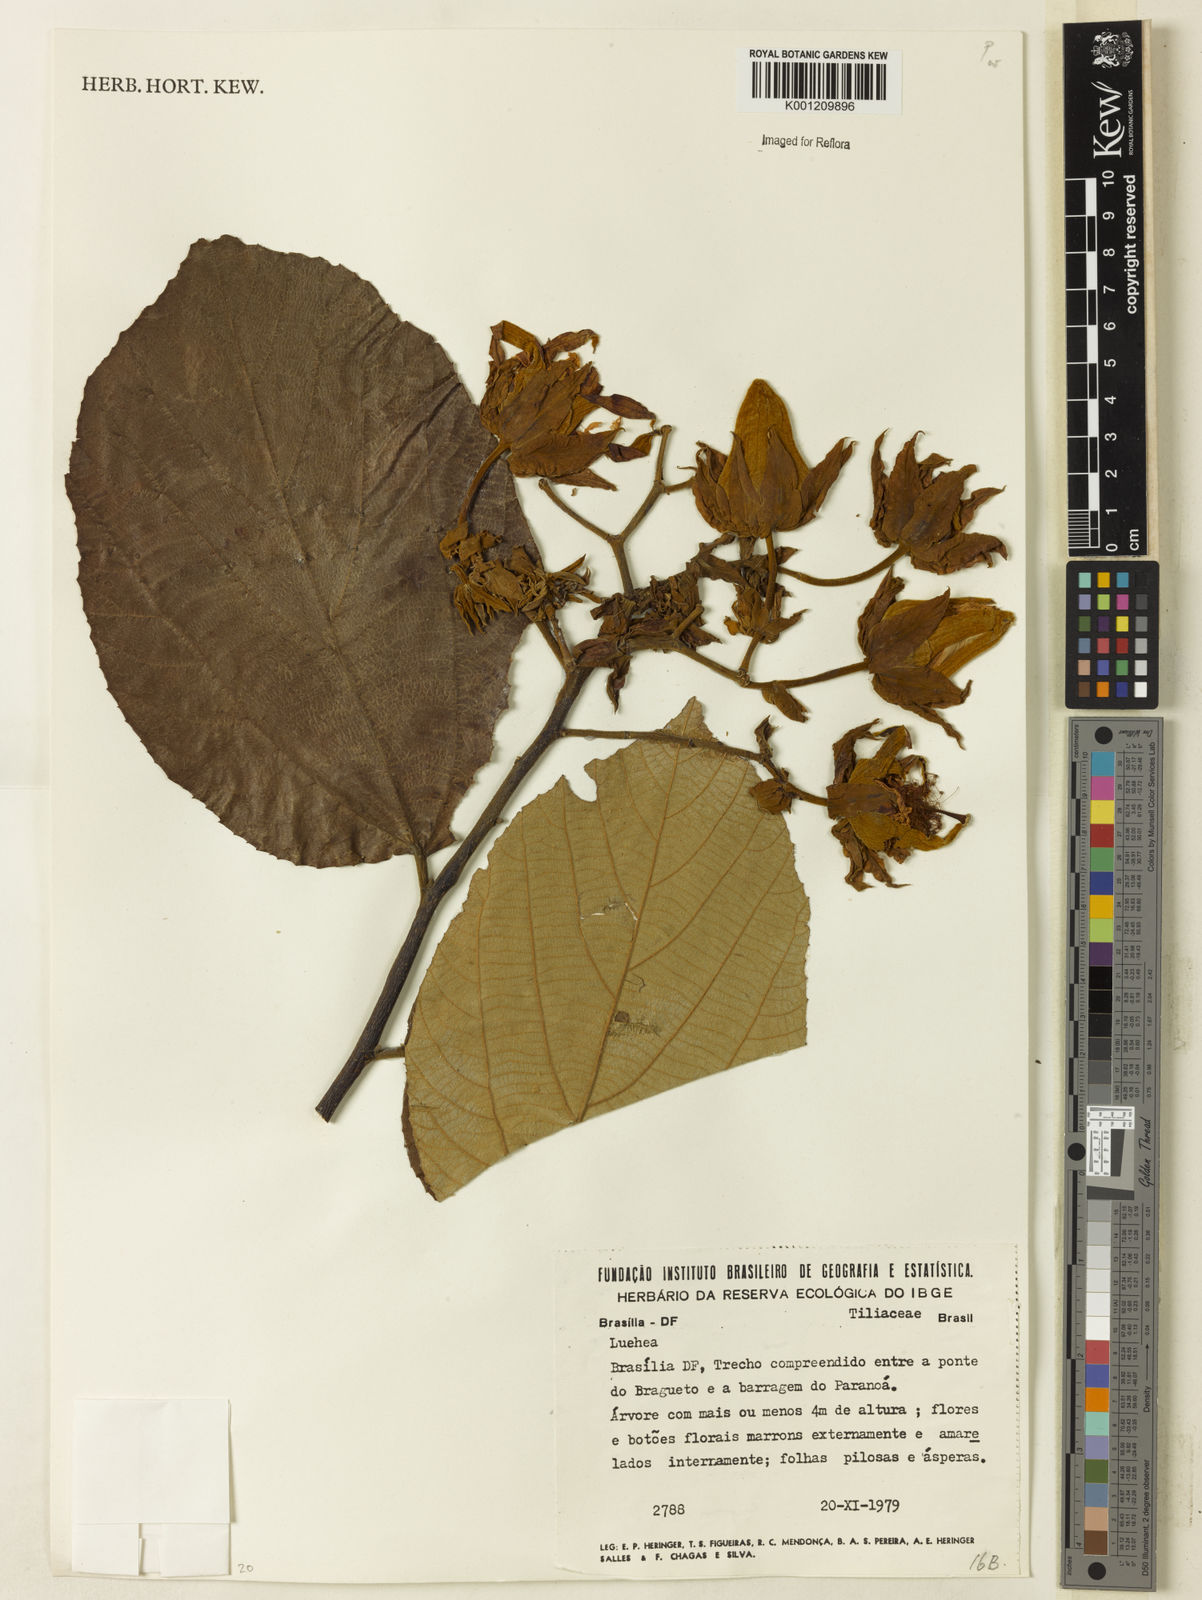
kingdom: Plantae
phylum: Tracheophyta
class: Magnoliopsida
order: Malvales
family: Malvaceae
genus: Luehea
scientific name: Luehea
